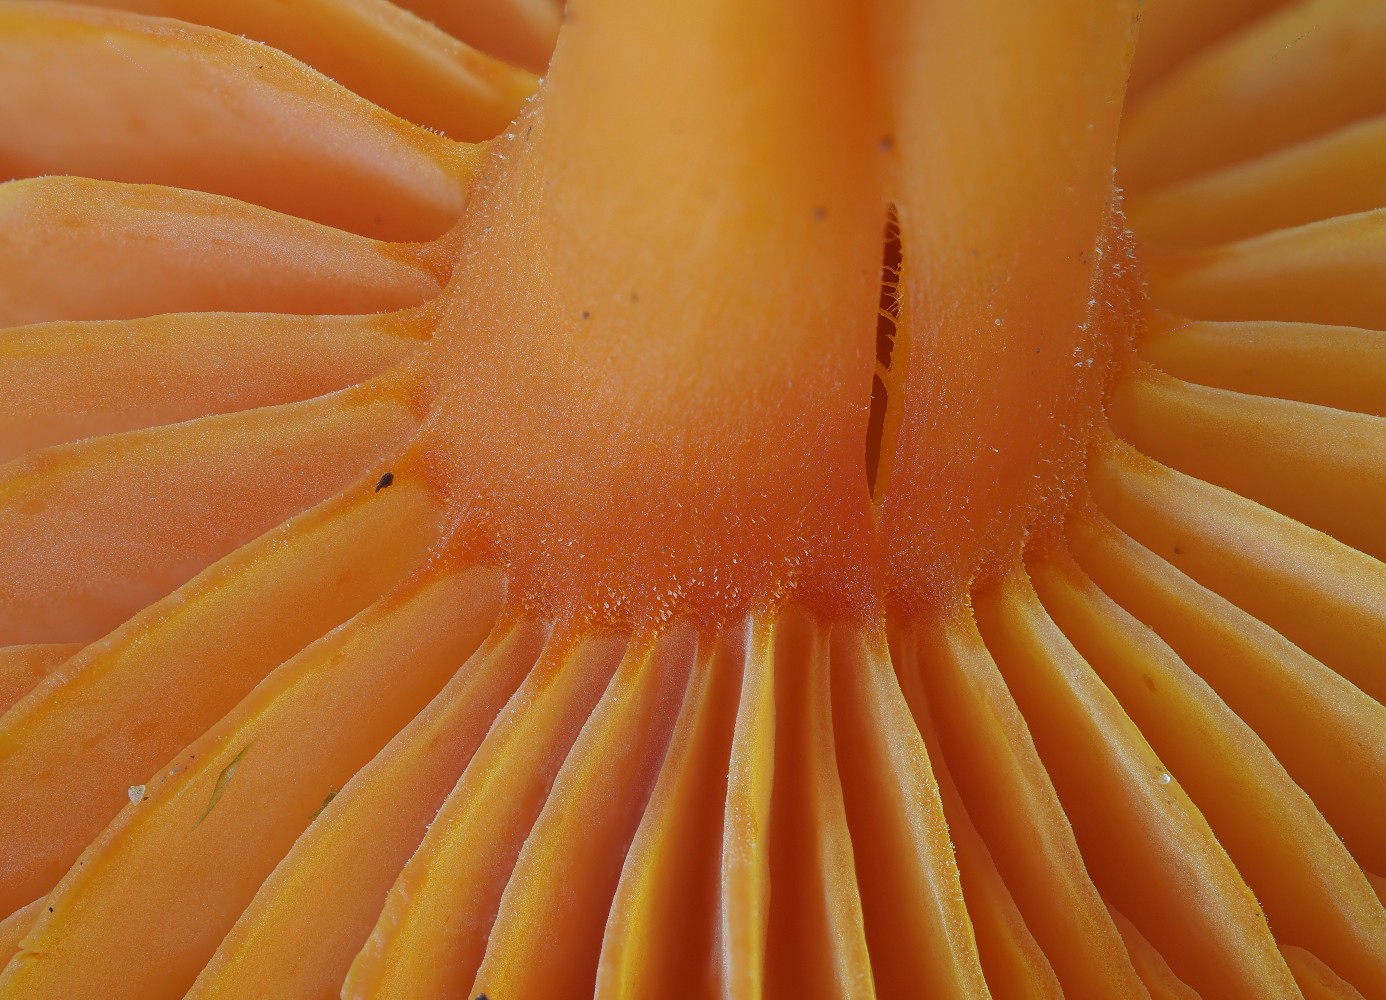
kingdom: Fungi
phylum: Basidiomycota
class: Agaricomycetes
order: Agaricales
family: Hygrophoraceae
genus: Hygrocybe
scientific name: Hygrocybe
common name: vokshat
